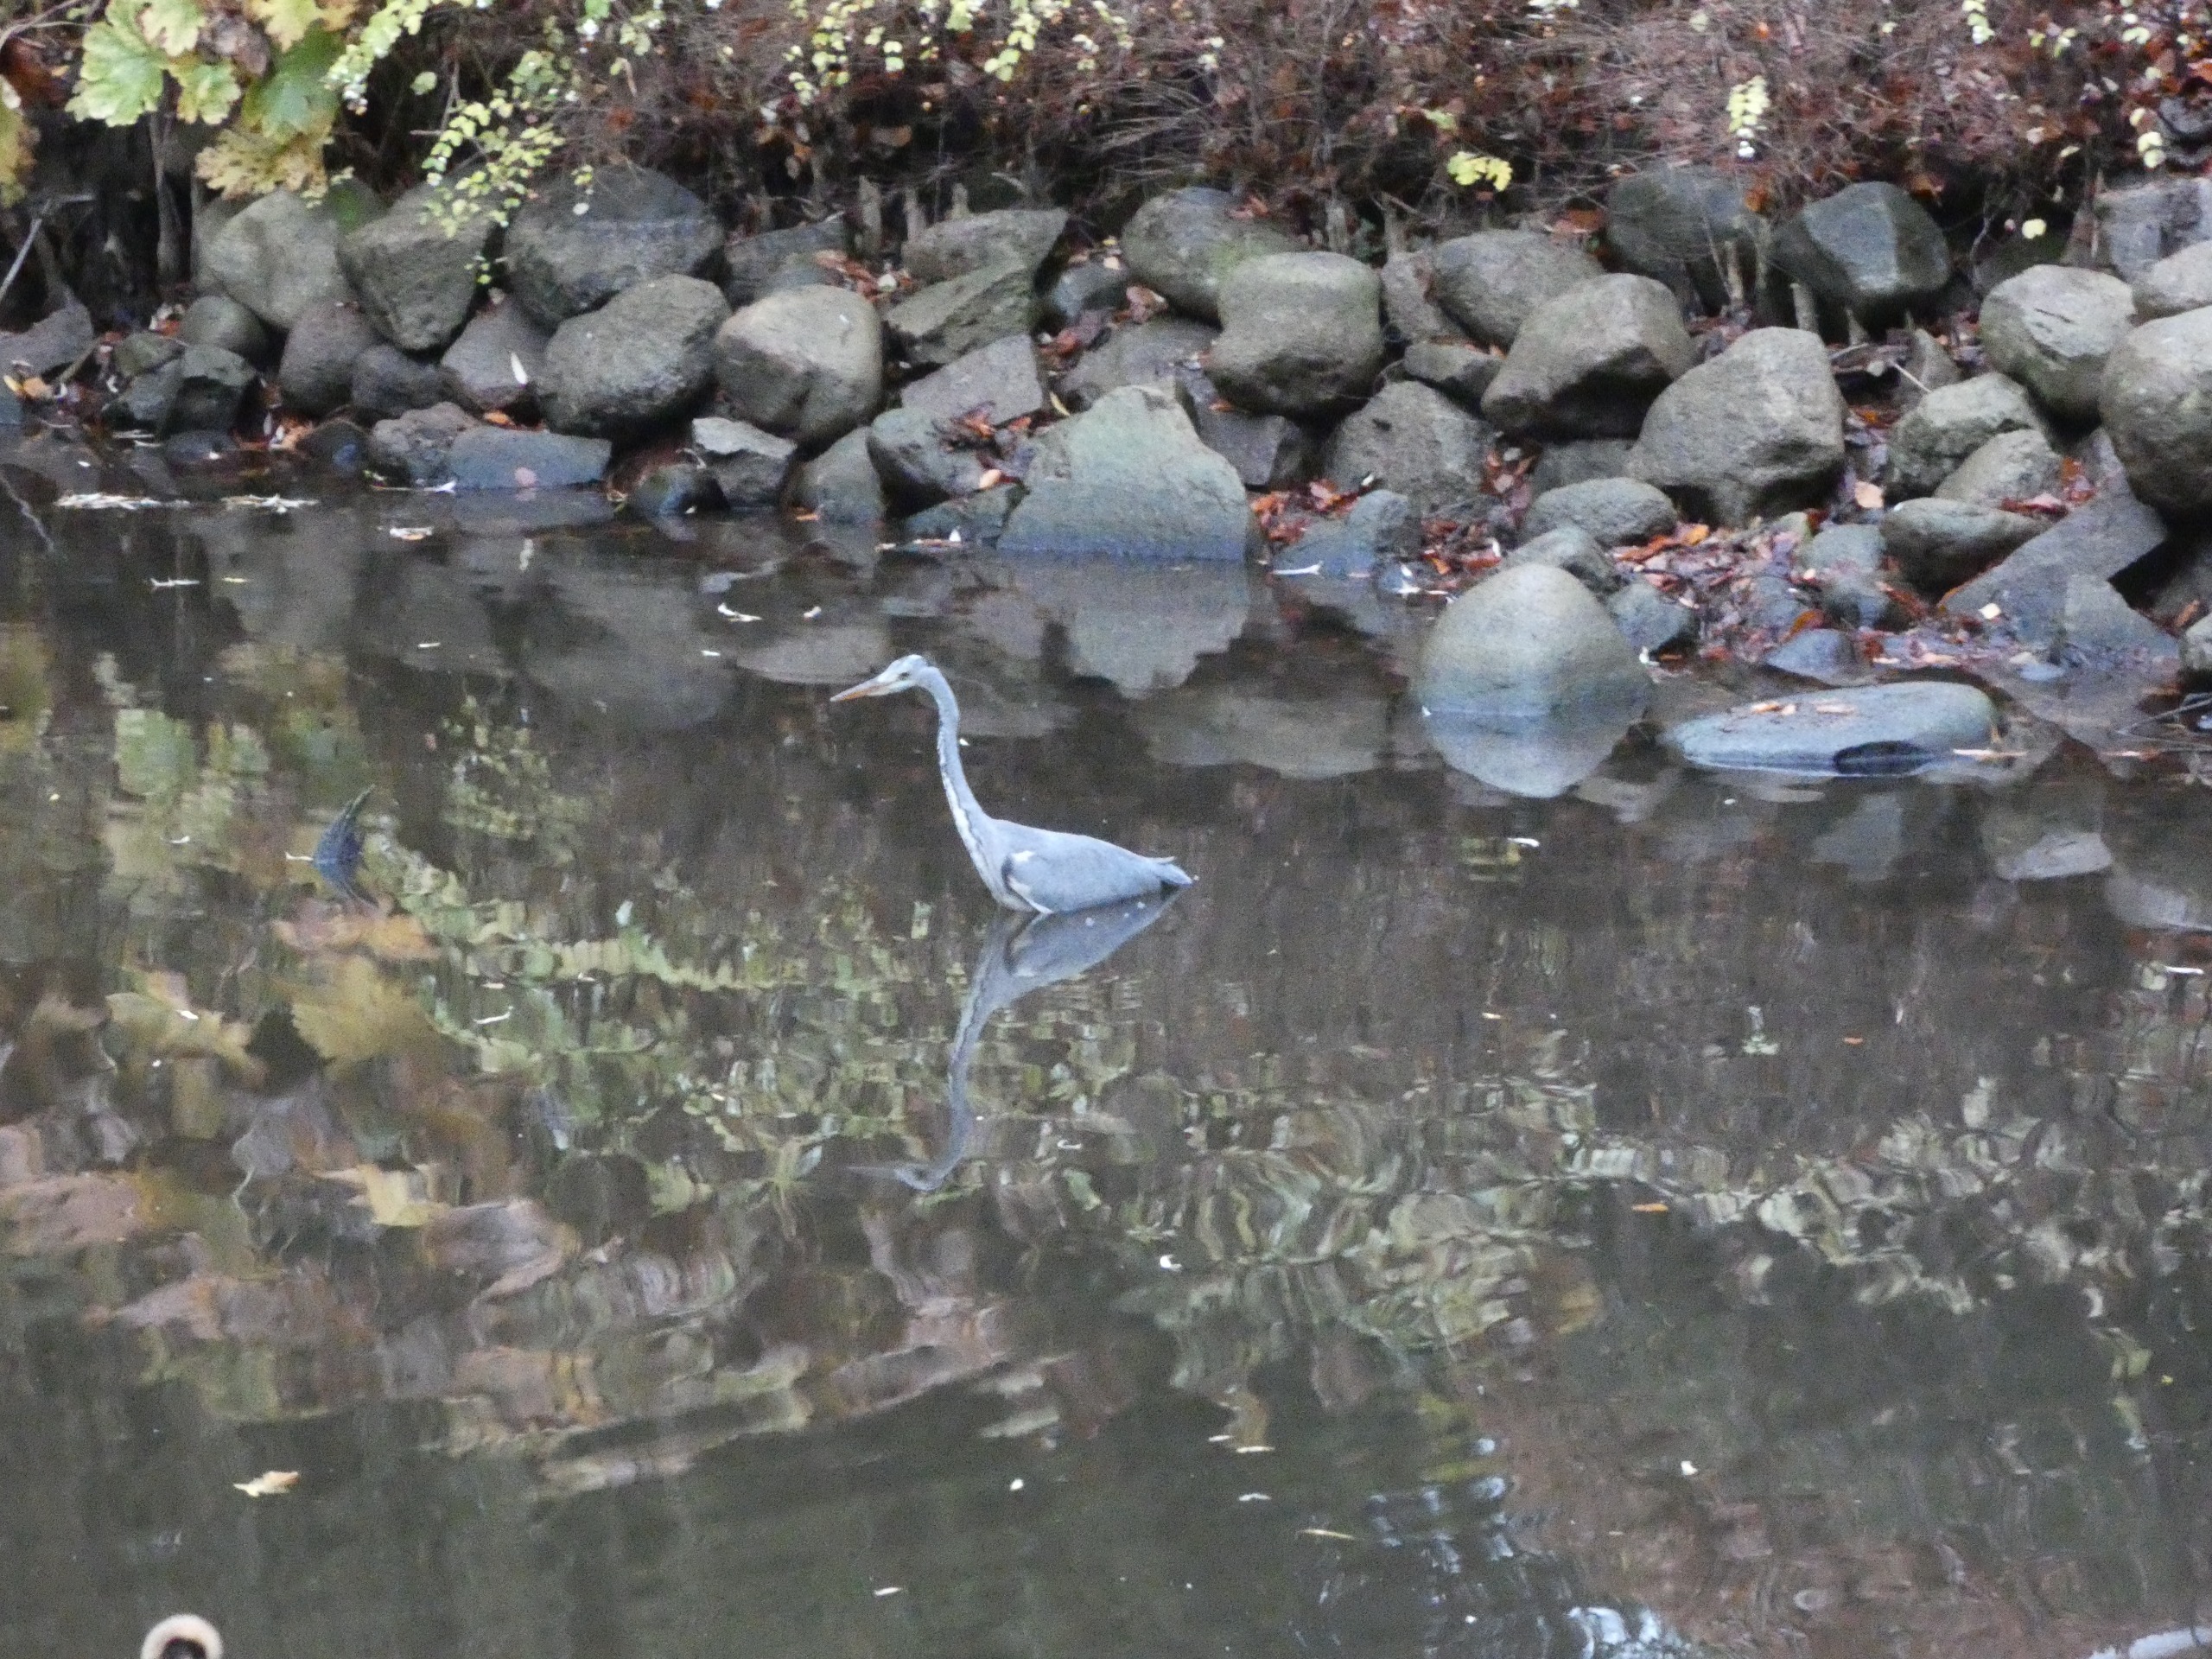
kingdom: Animalia
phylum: Chordata
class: Aves
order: Pelecaniformes
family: Ardeidae
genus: Ardea
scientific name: Ardea cinerea
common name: Fiskehejre
